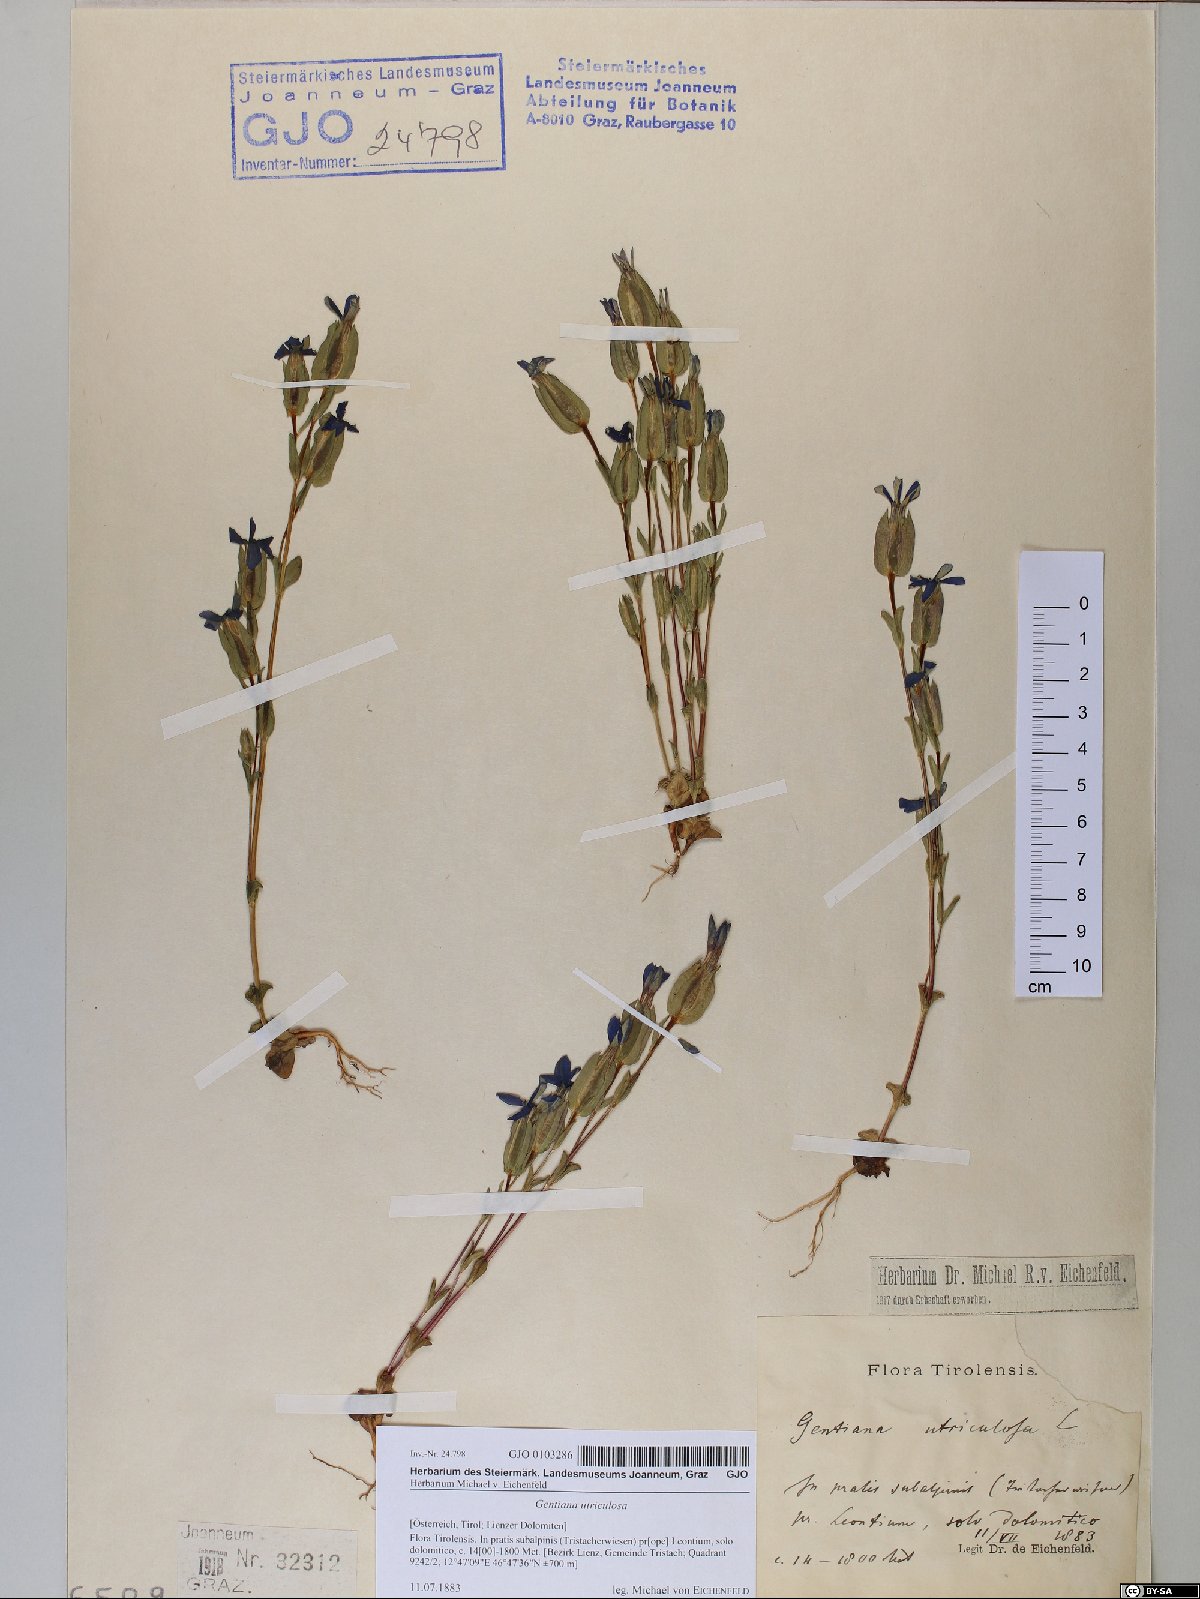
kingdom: Plantae
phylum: Tracheophyta
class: Magnoliopsida
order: Gentianales
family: Gentianaceae
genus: Gentiana
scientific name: Gentiana utriculosa
